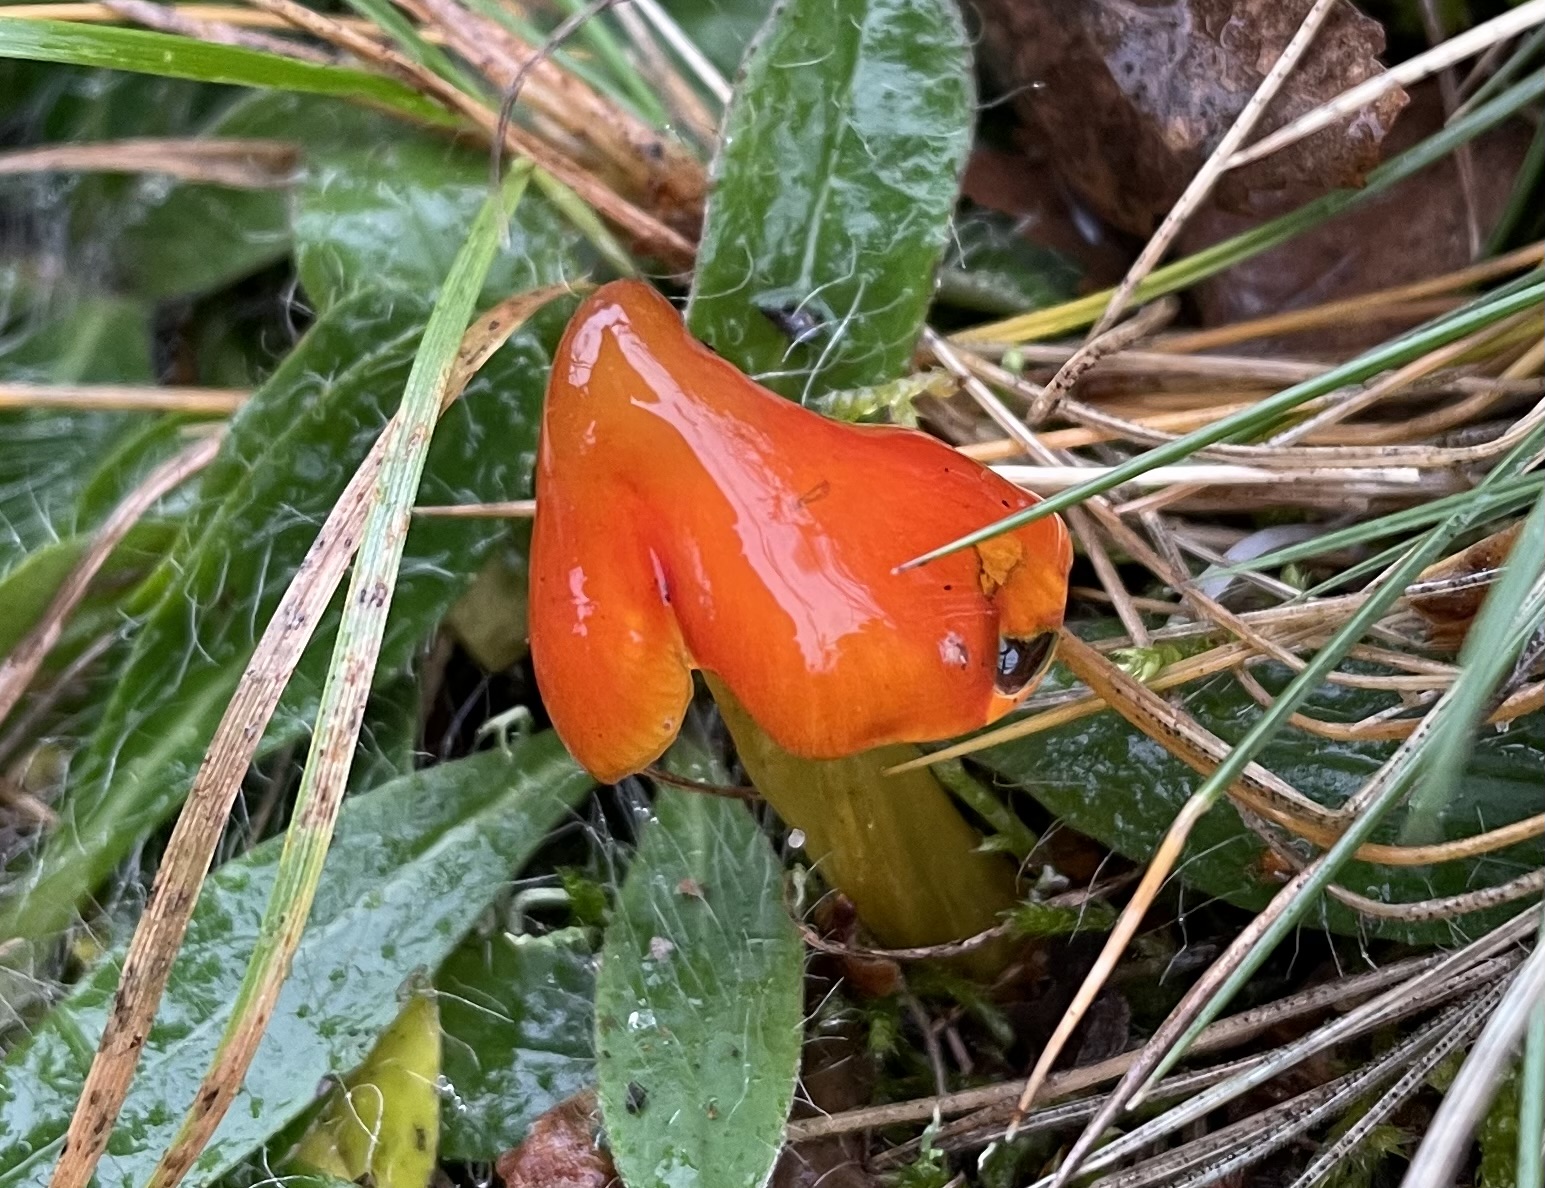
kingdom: Fungi
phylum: Basidiomycota
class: Agaricomycetes
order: Agaricales
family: Hygrophoraceae
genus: Hygrocybe
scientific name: Hygrocybe conica
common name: kegle-vokshat
